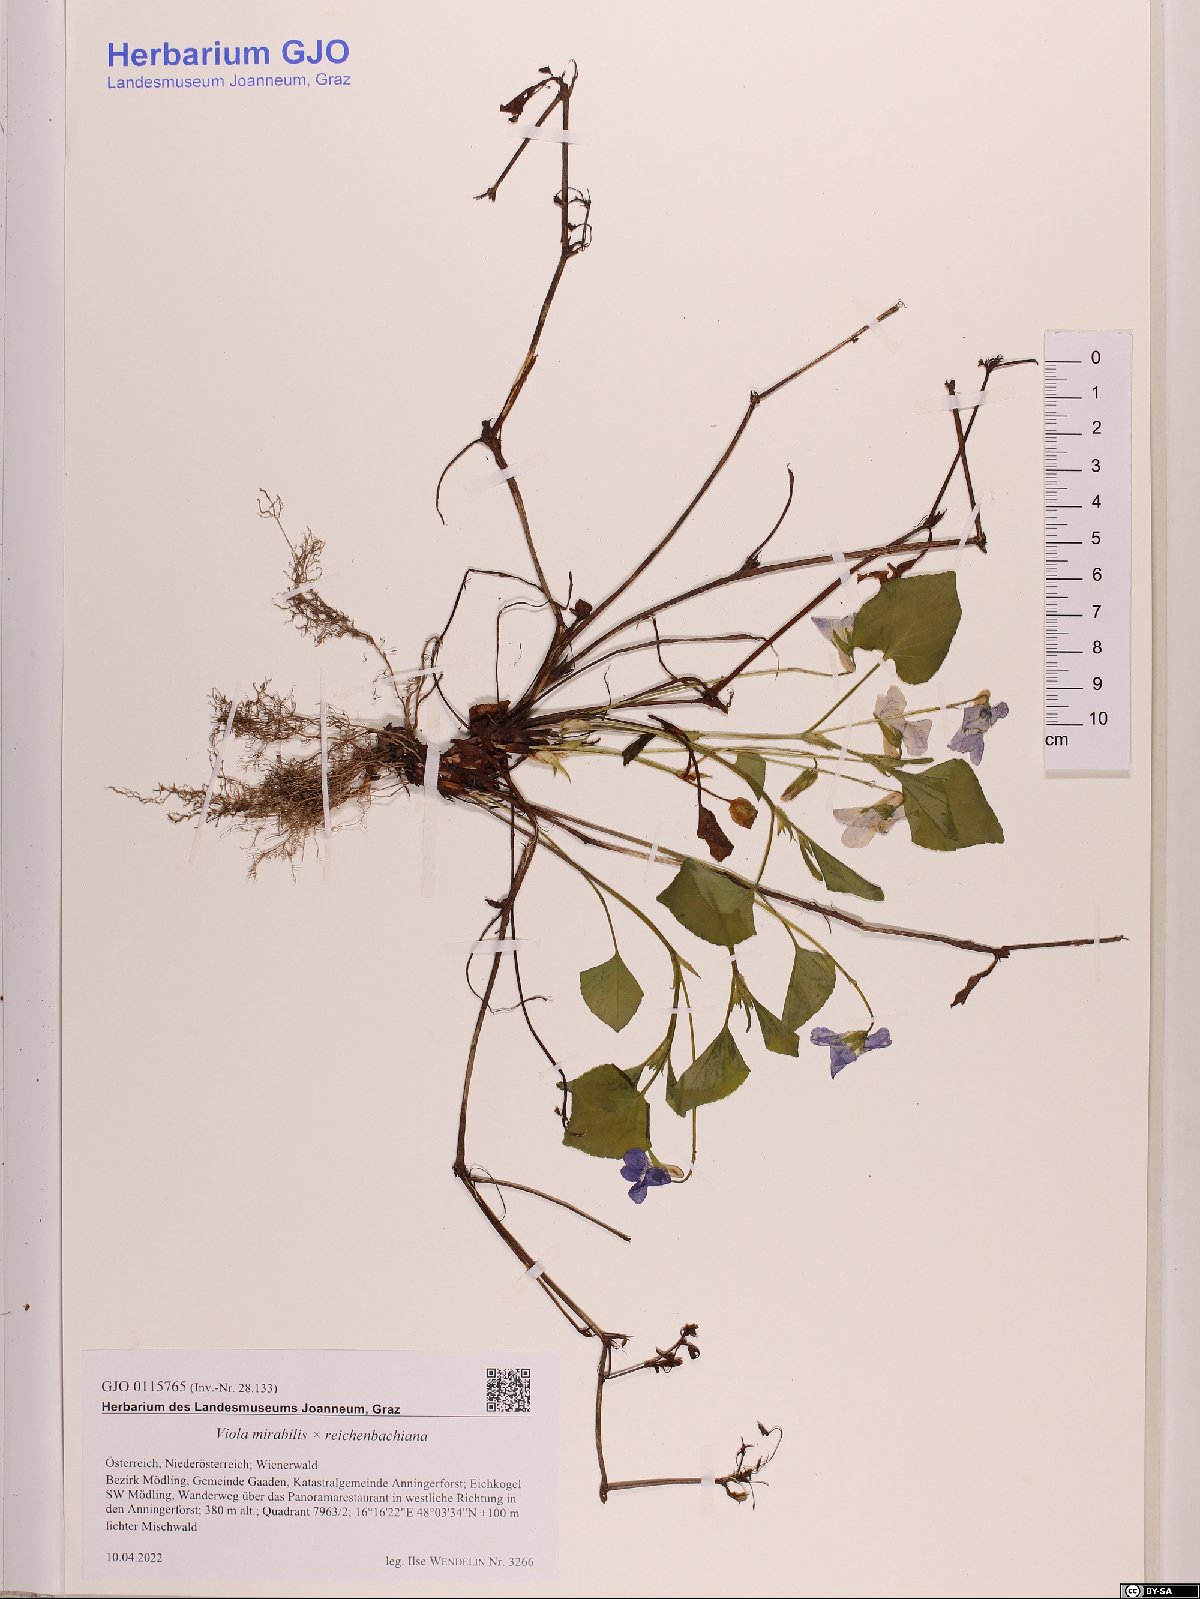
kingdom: Plantae
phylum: Tracheophyta
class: Magnoliopsida
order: Malpighiales
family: Violaceae
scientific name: Violaceae
